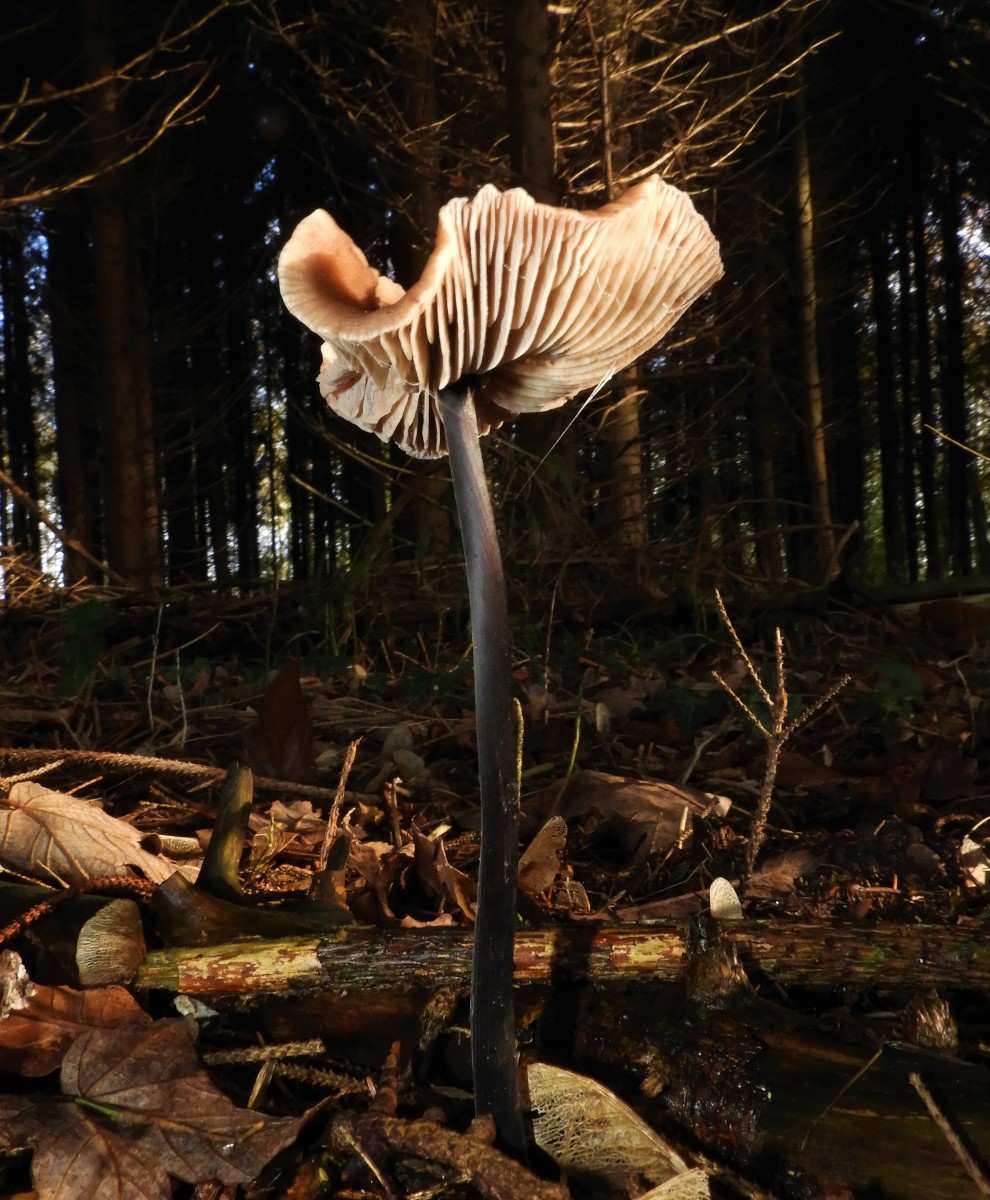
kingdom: Fungi
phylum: Basidiomycota
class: Agaricomycetes
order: Agaricales
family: Omphalotaceae
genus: Mycetinis
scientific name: Mycetinis alliaceus
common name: stor løghat
